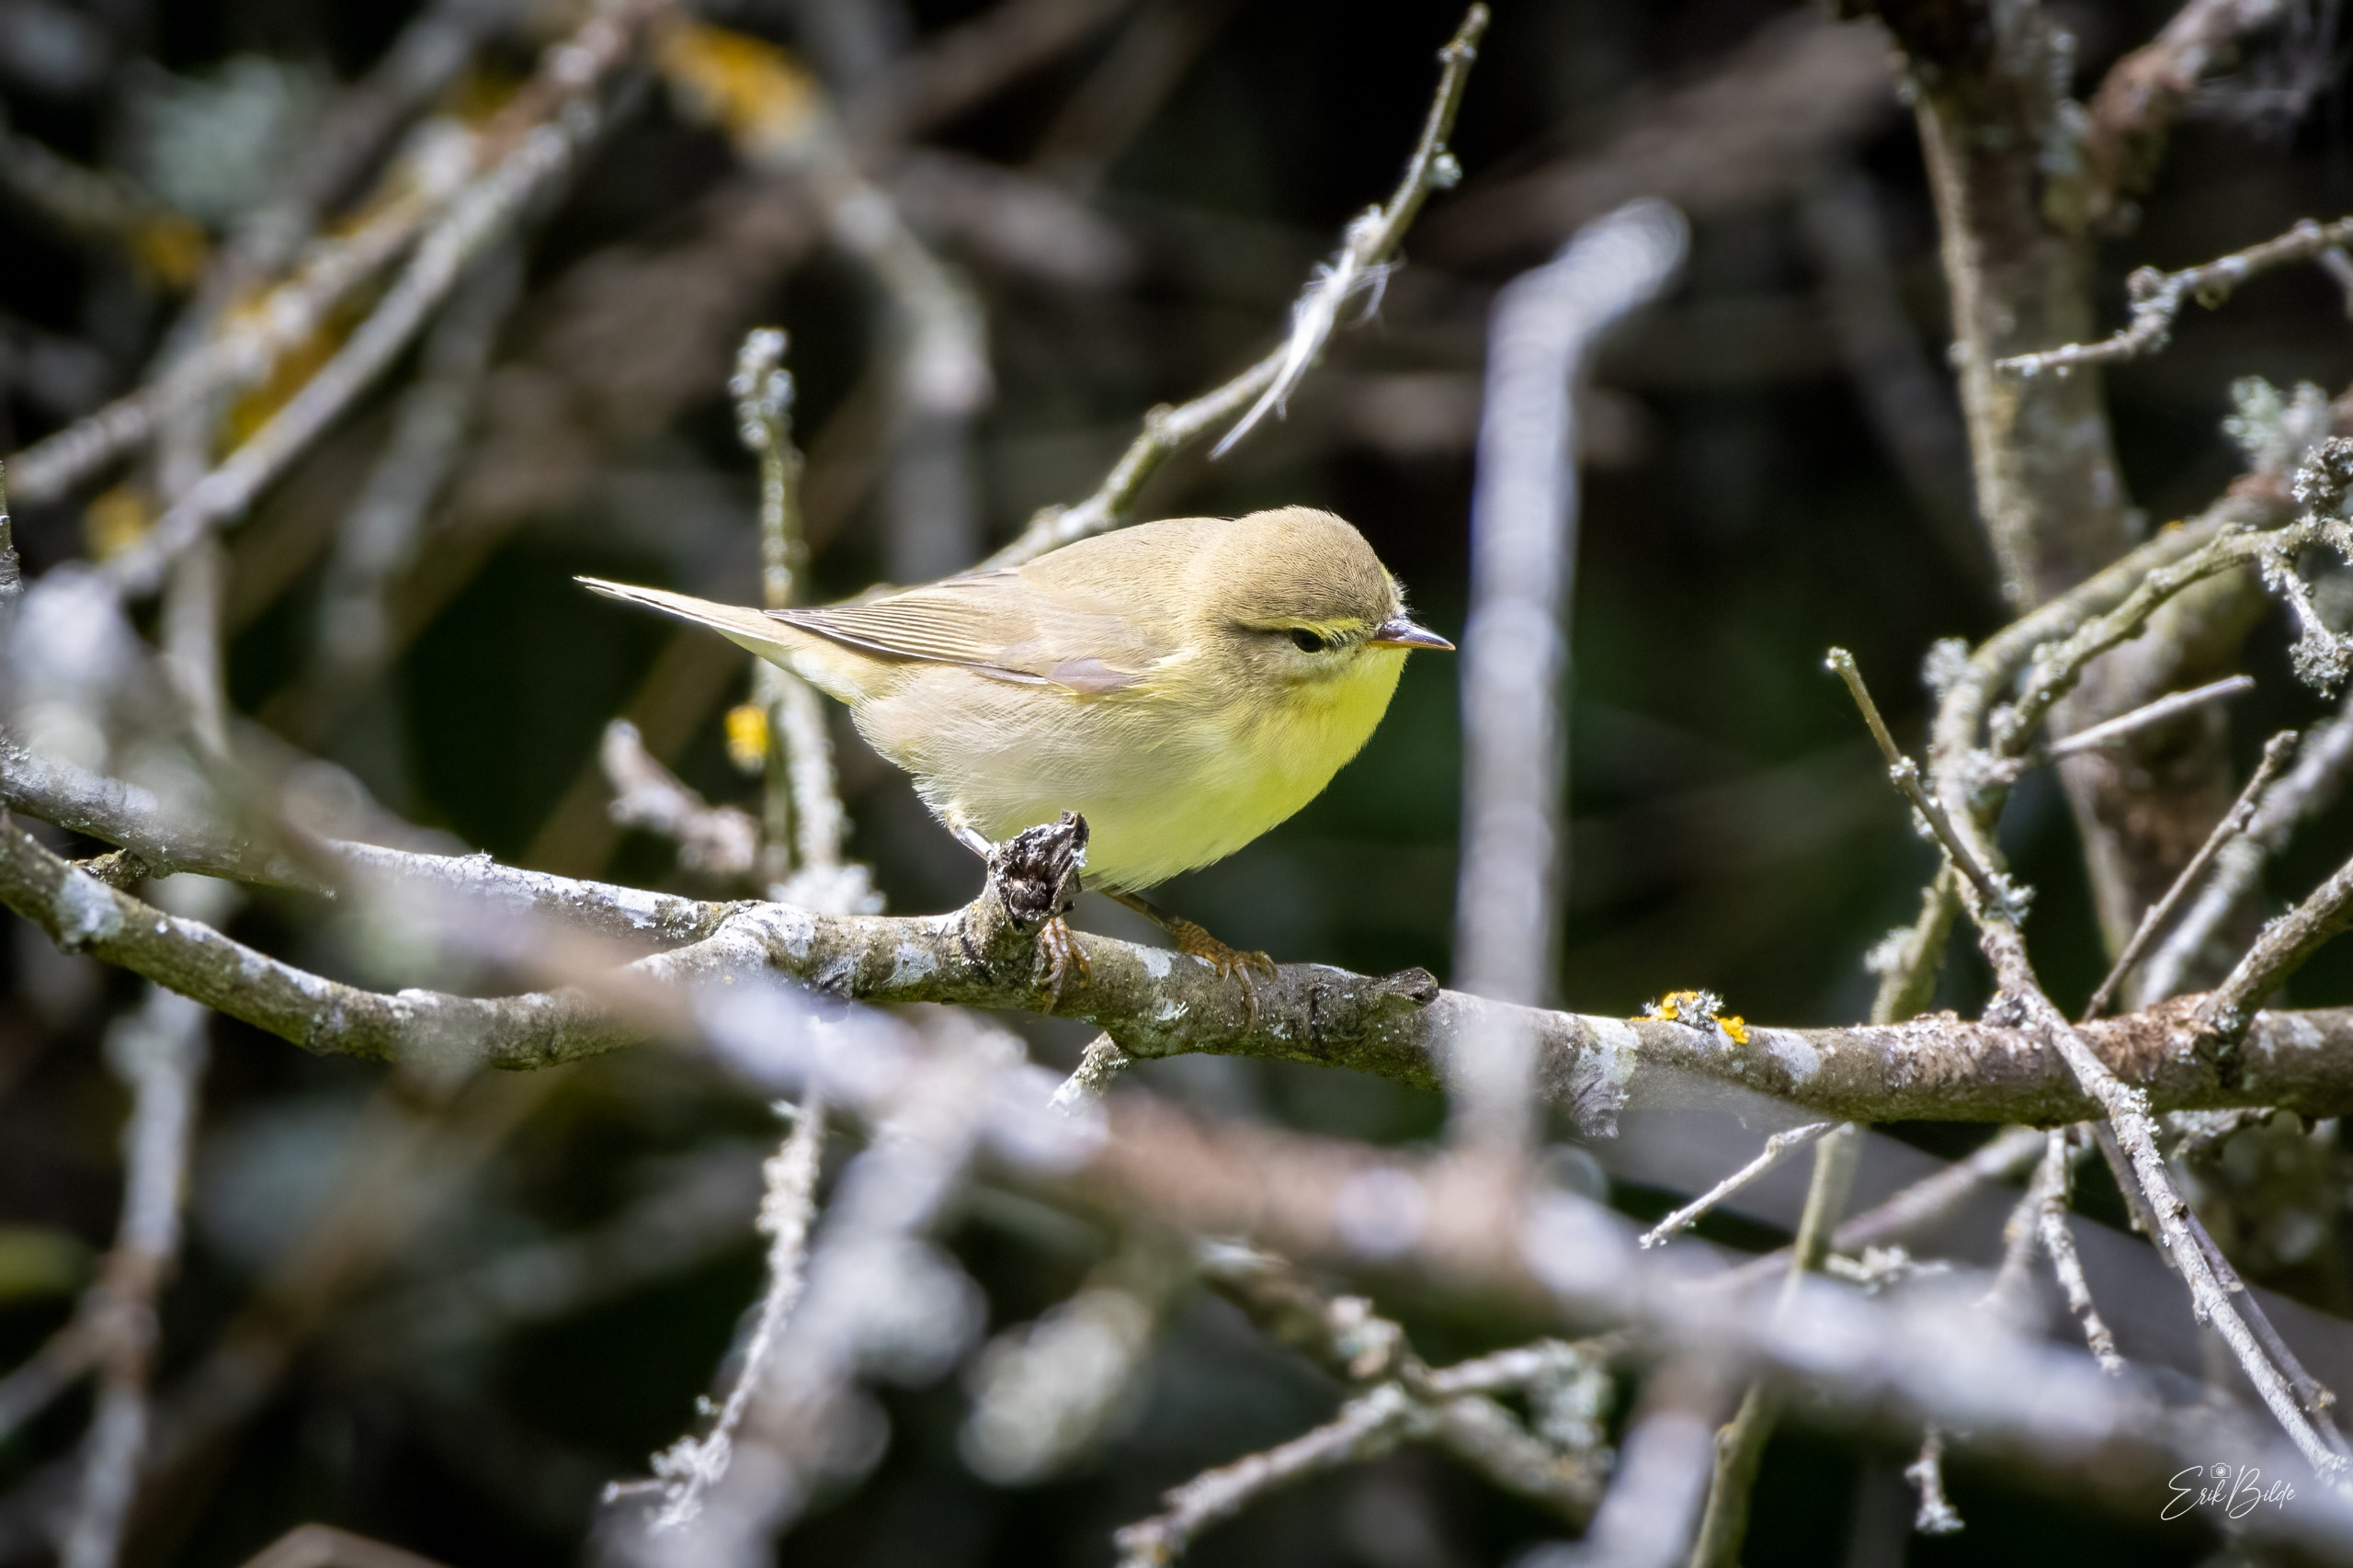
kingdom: Animalia
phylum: Chordata
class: Aves
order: Passeriformes
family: Phylloscopidae
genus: Phylloscopus
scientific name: Phylloscopus trochilus
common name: Løvsanger
